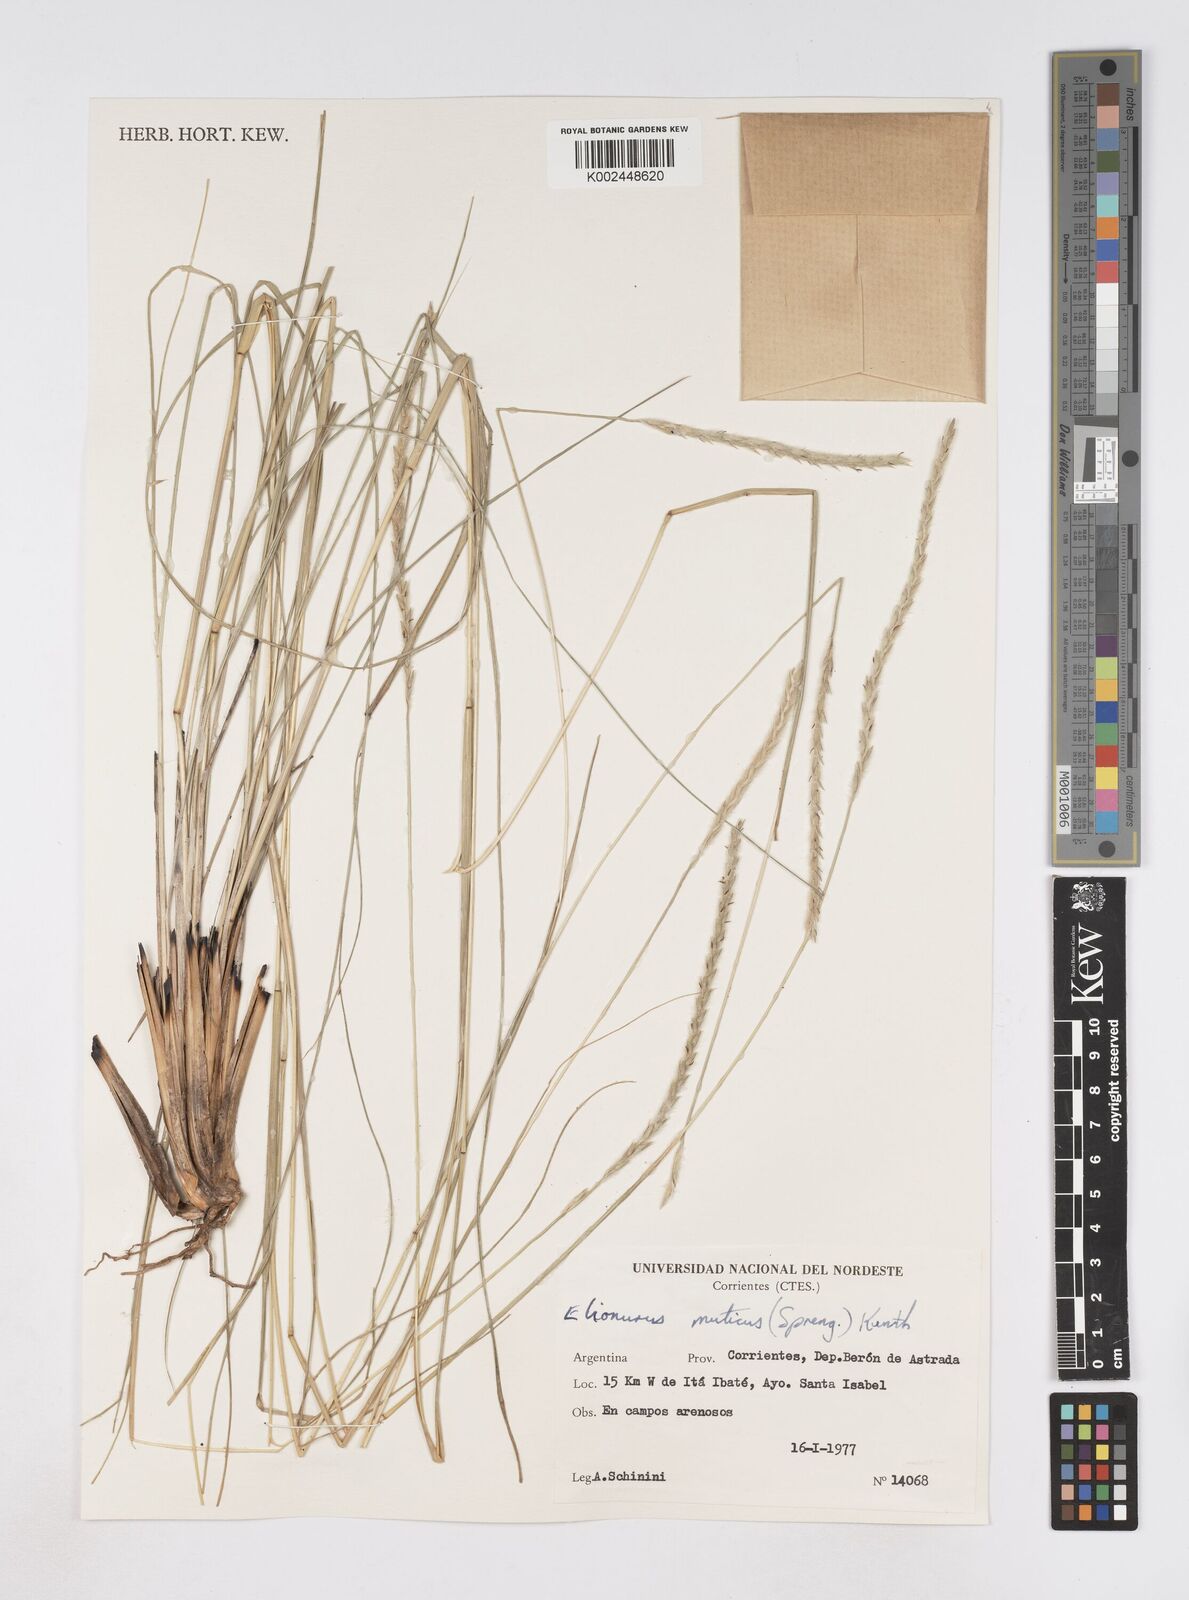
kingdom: Plantae
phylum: Tracheophyta
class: Liliopsida
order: Poales
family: Poaceae
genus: Elionurus
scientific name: Elionurus muticus
